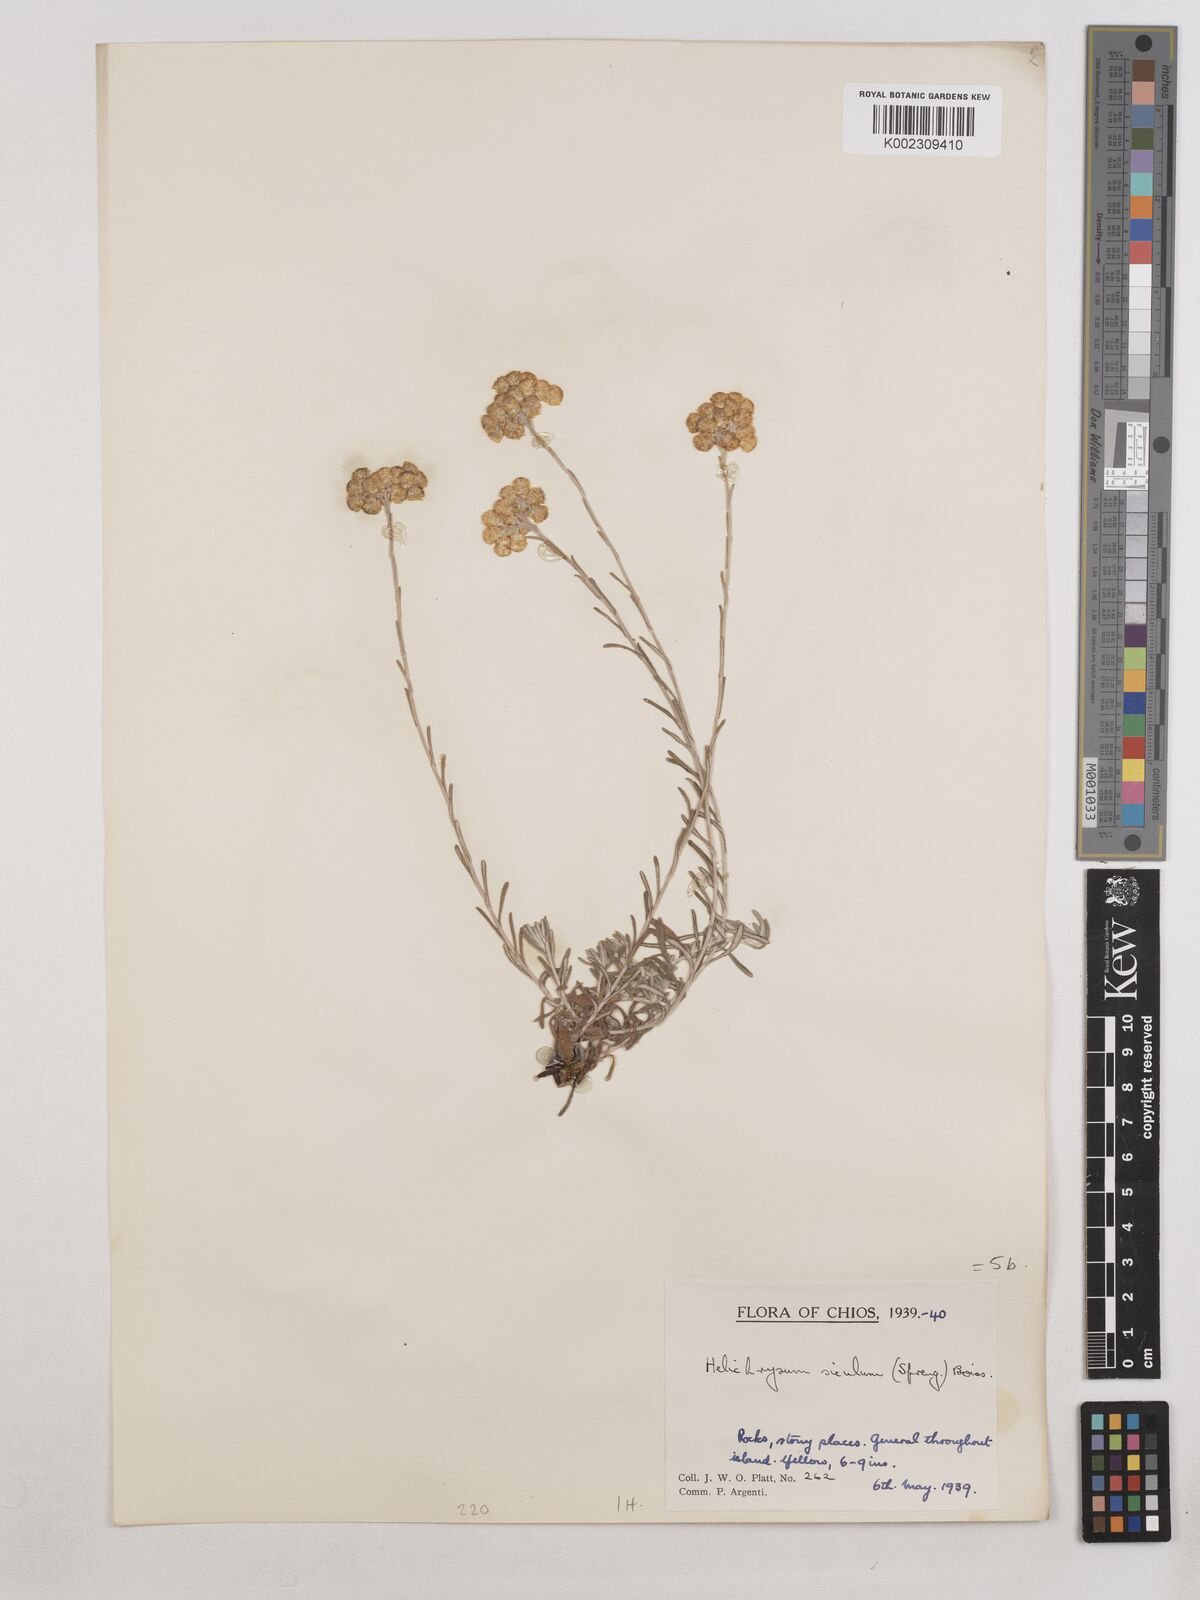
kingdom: Plantae
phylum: Tracheophyta
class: Magnoliopsida
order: Asterales
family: Asteraceae
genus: Helichrysum
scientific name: Helichrysum stoechas
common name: Goldilocks
